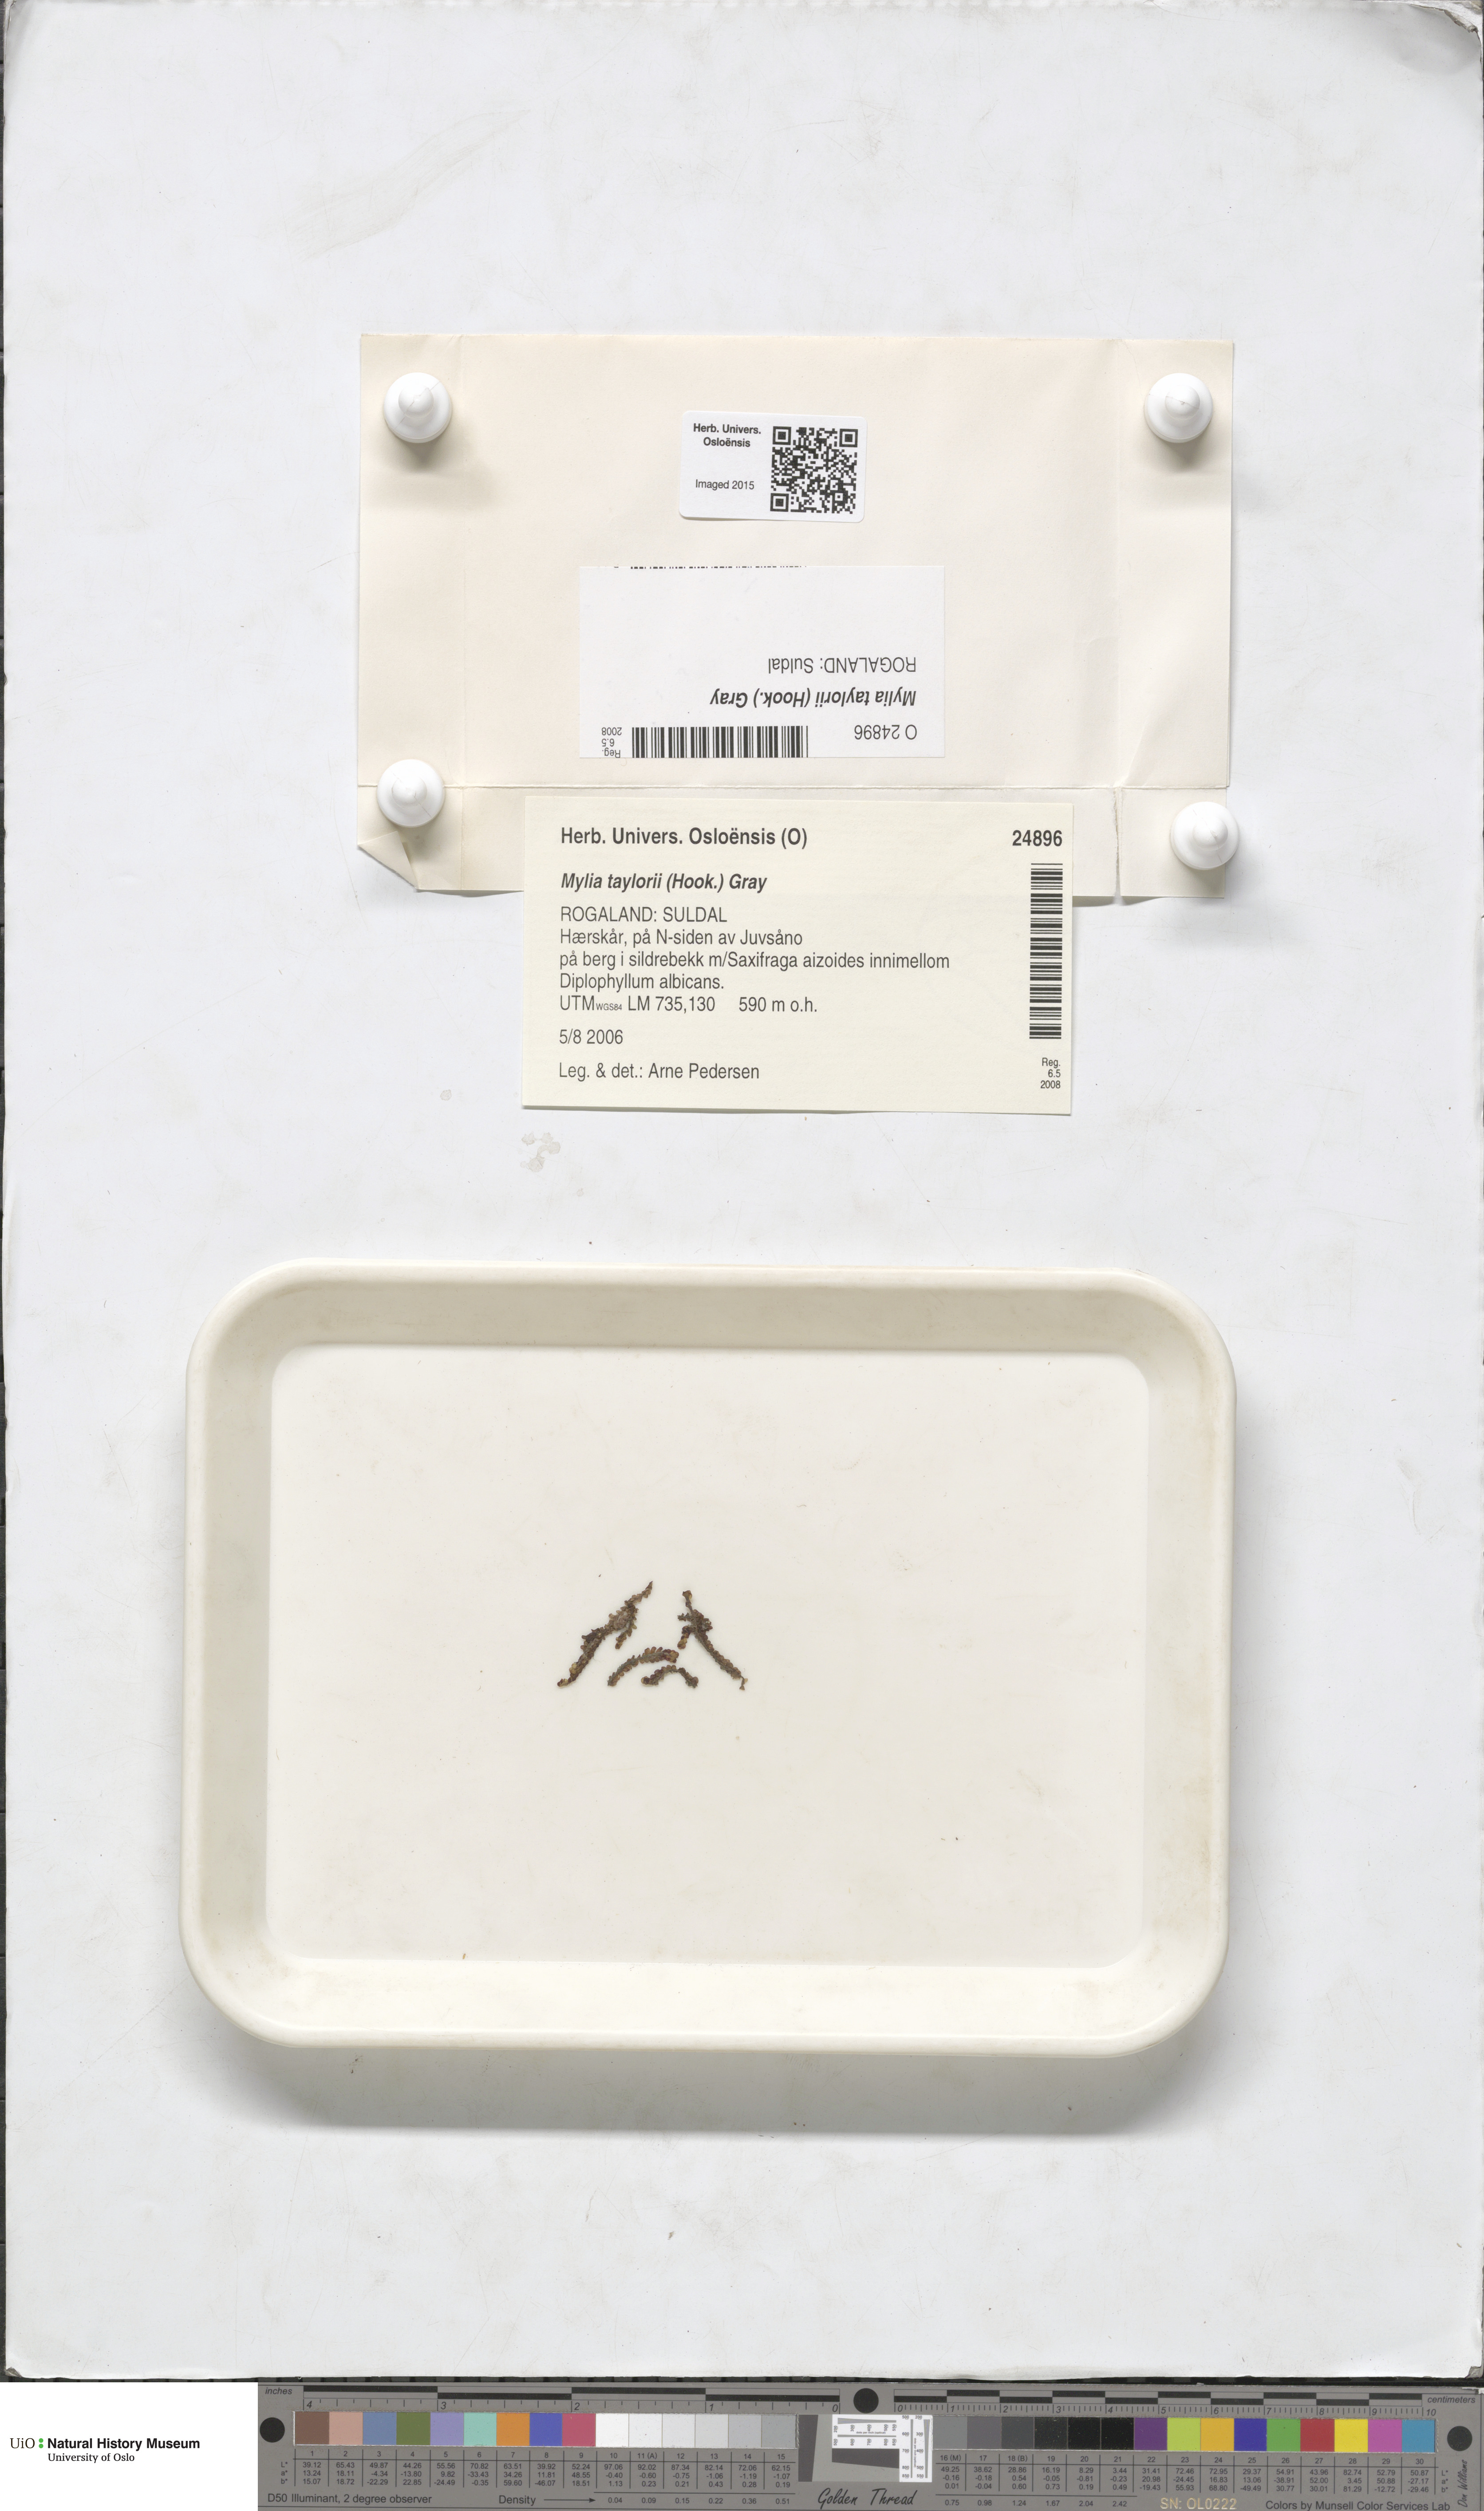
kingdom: Plantae
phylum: Marchantiophyta
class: Jungermanniopsida
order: Jungermanniales
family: Myliaceae
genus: Mylia
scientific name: Mylia taylorii
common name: Taylor s flapwort
